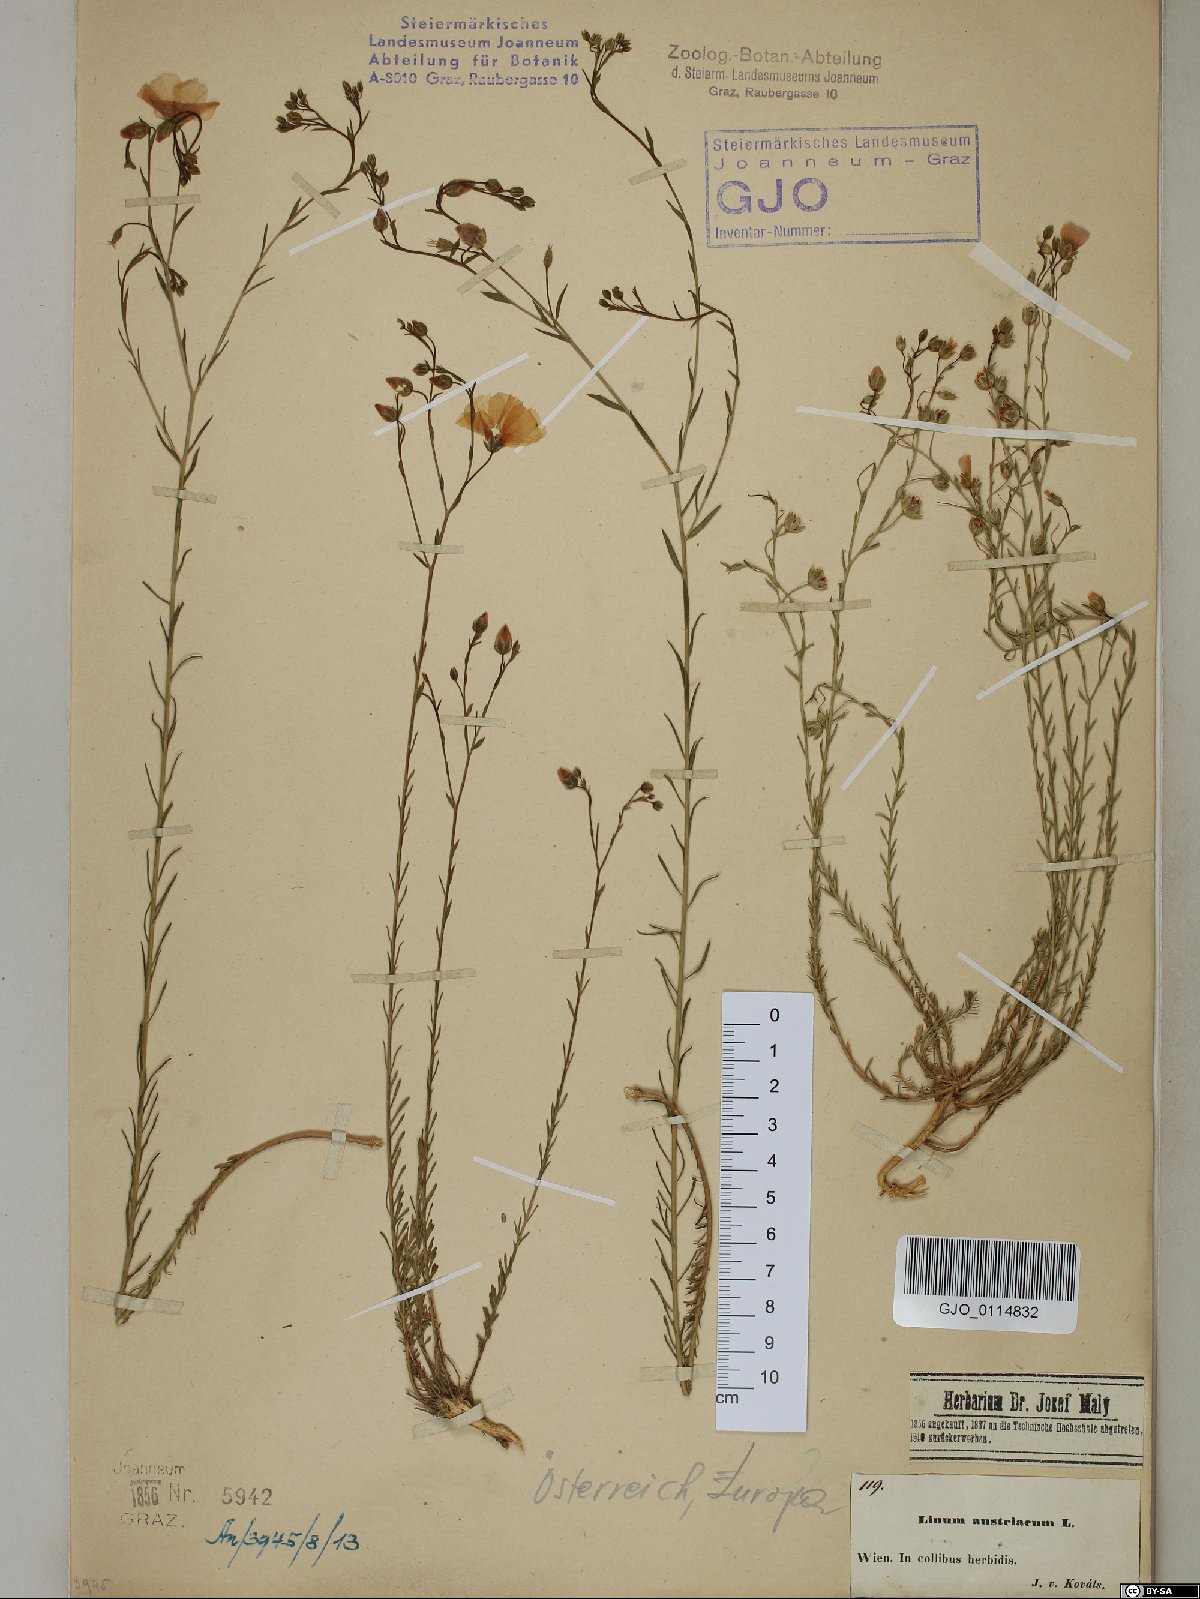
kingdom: Plantae
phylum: Tracheophyta
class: Magnoliopsida
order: Malpighiales
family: Linaceae
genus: Linum
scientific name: Linum austriacum
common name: Austrian flax
